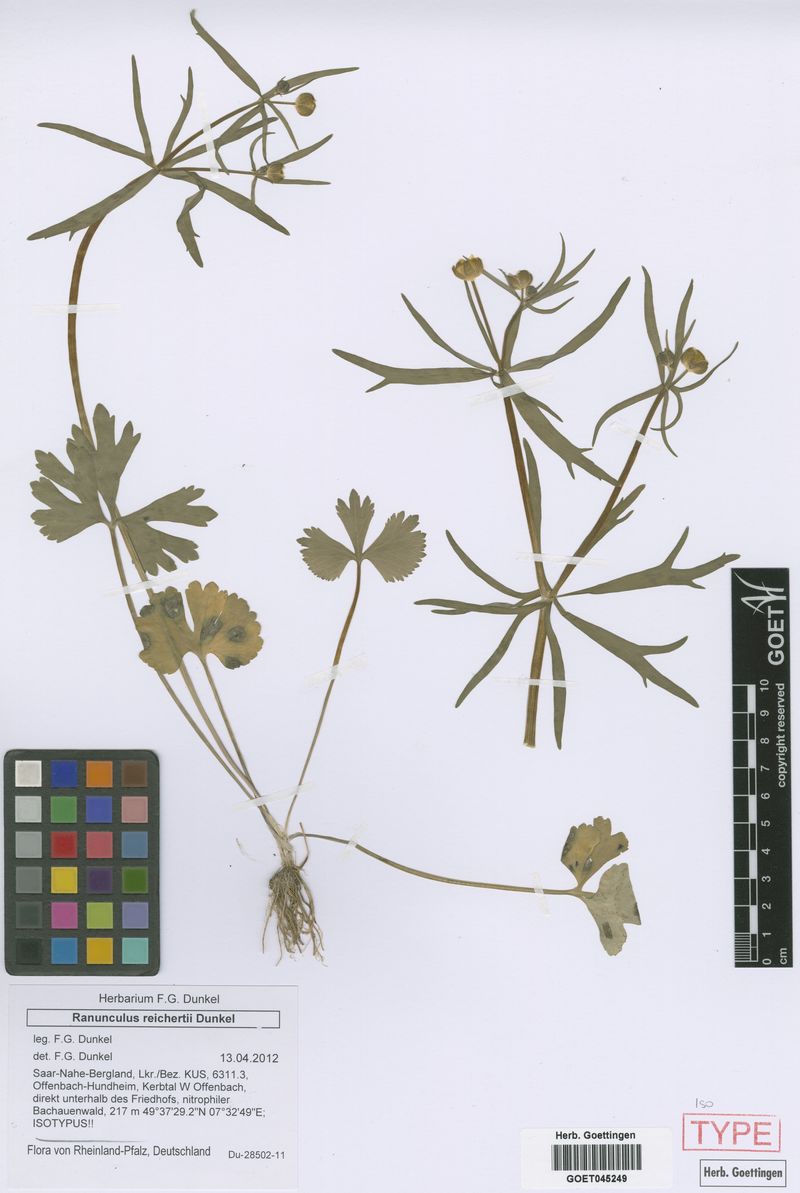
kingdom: Plantae
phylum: Tracheophyta
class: Magnoliopsida
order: Ranunculales
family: Ranunculaceae
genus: Ranunculus
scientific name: Ranunculus reichertii
